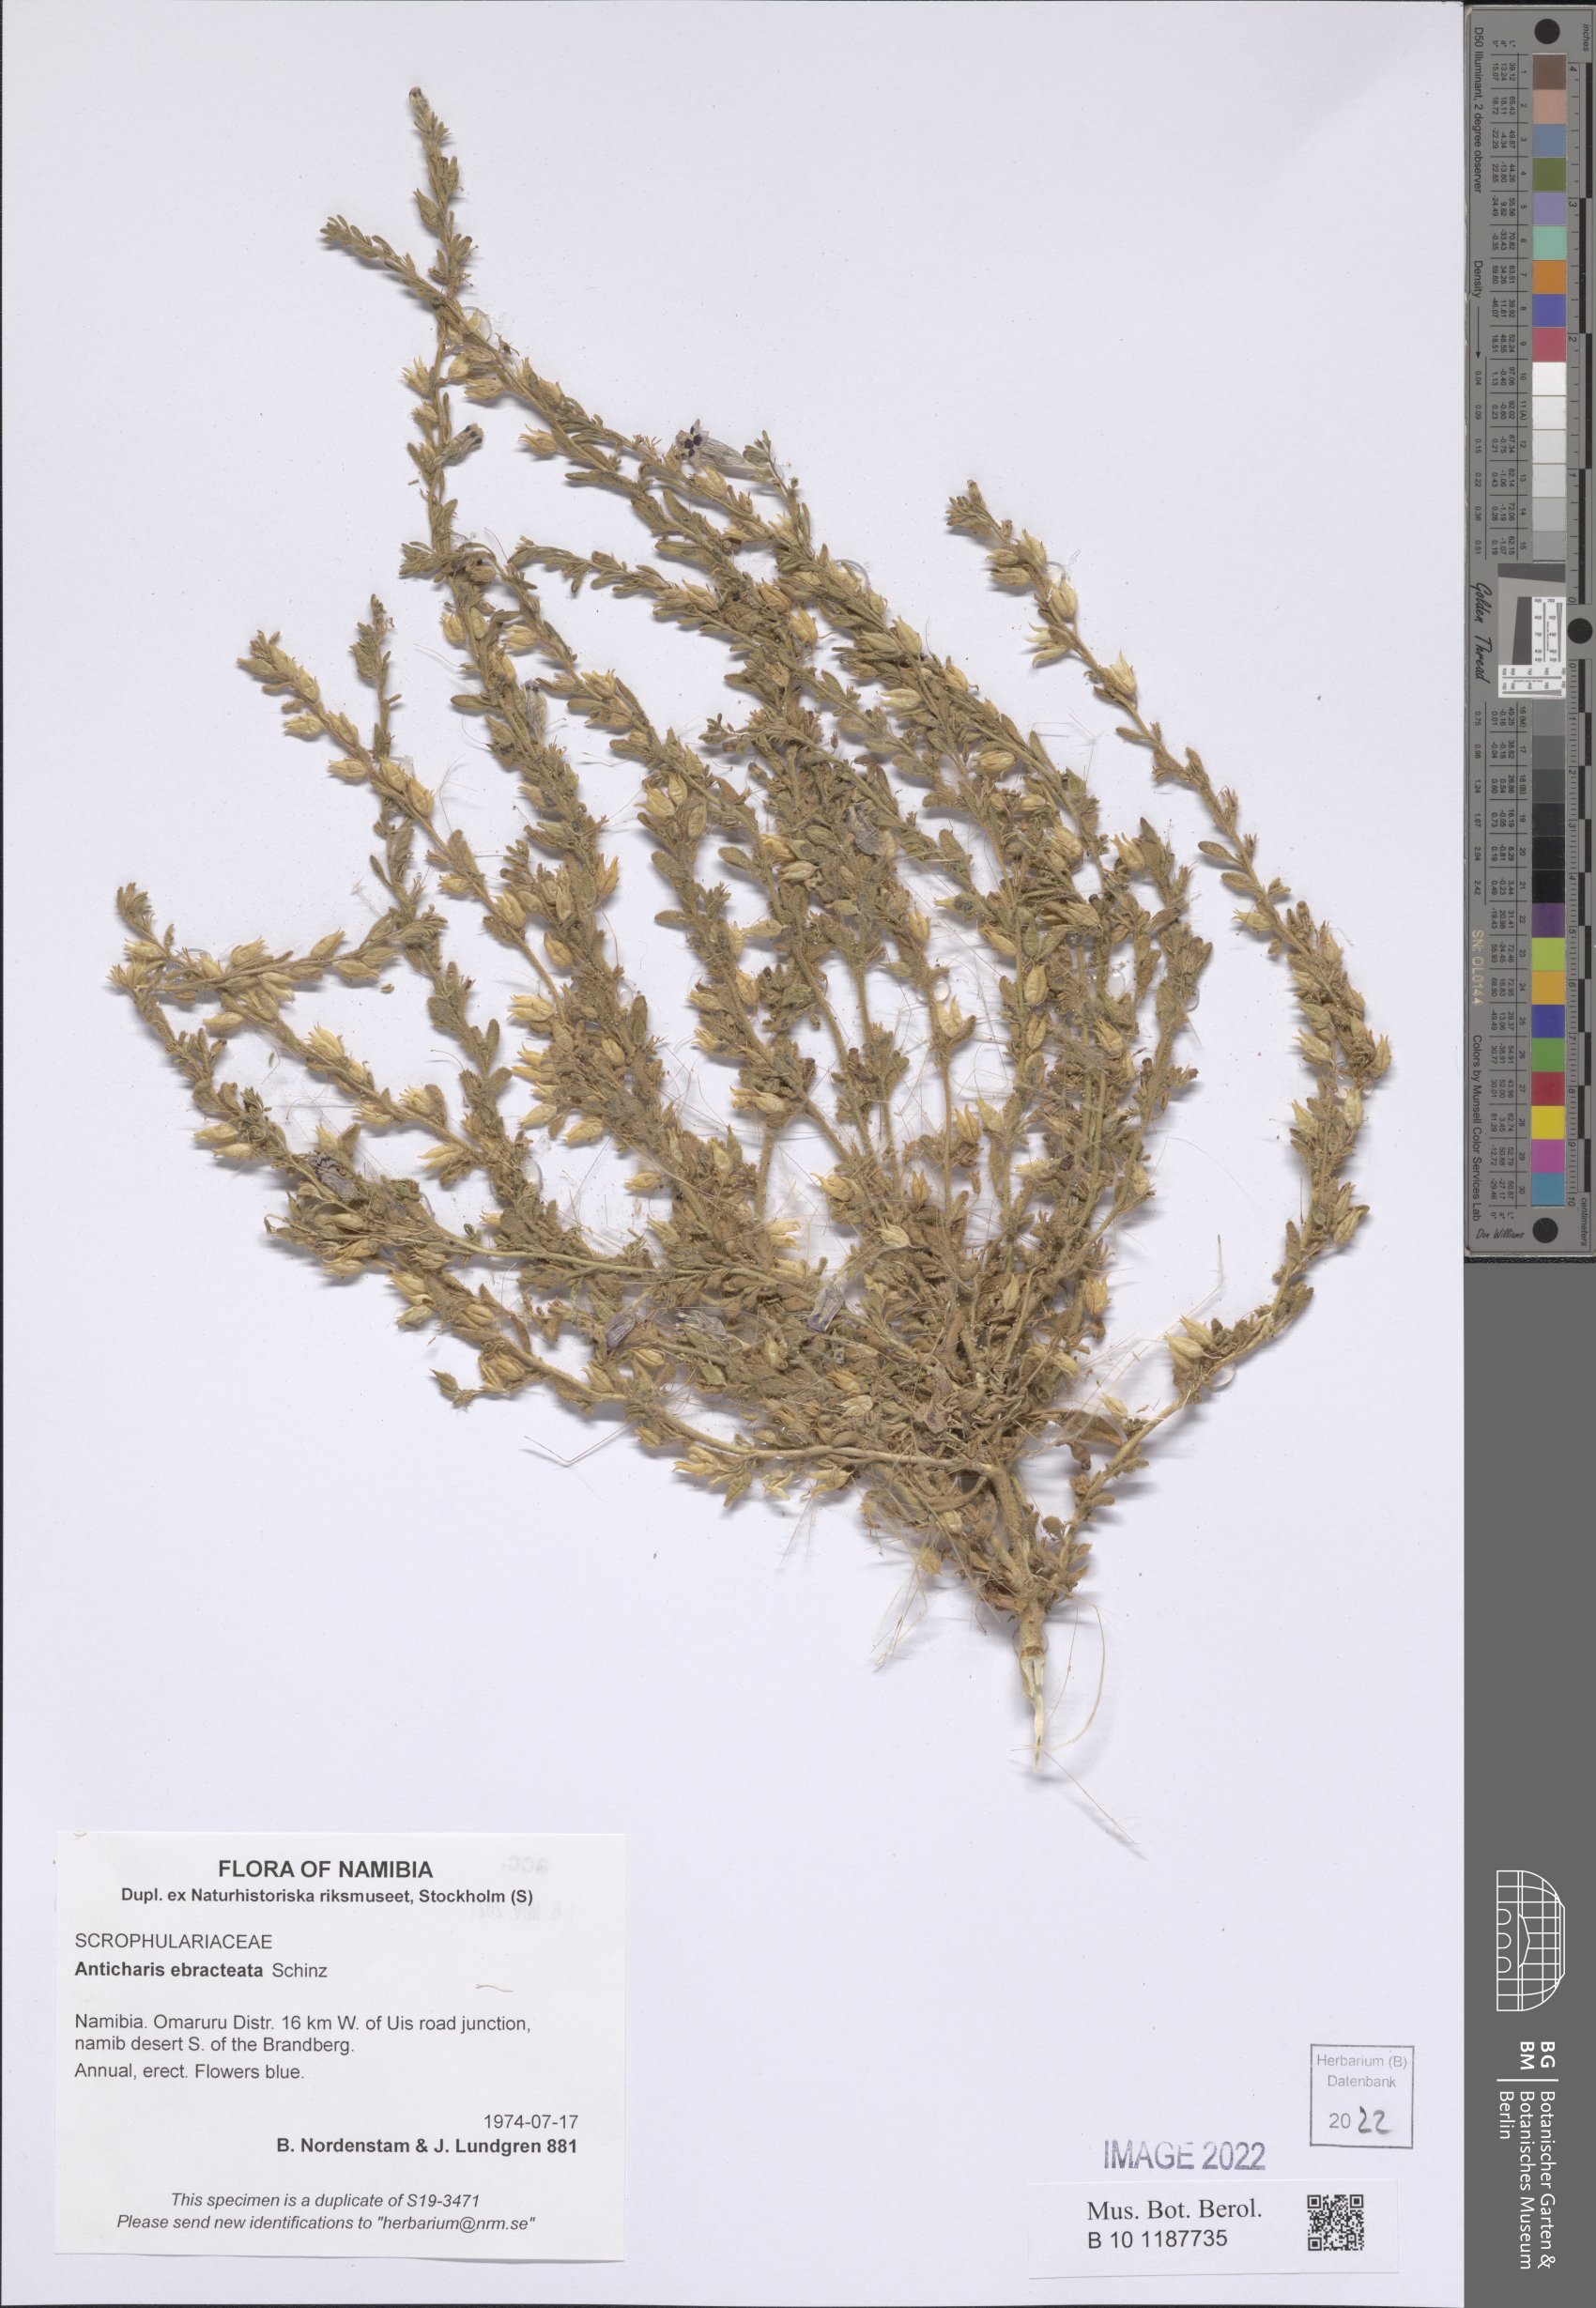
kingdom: Plantae
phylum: Tracheophyta
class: Magnoliopsida
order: Lamiales
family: Scrophulariaceae
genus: Anticharis
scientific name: Anticharis ebracteata
